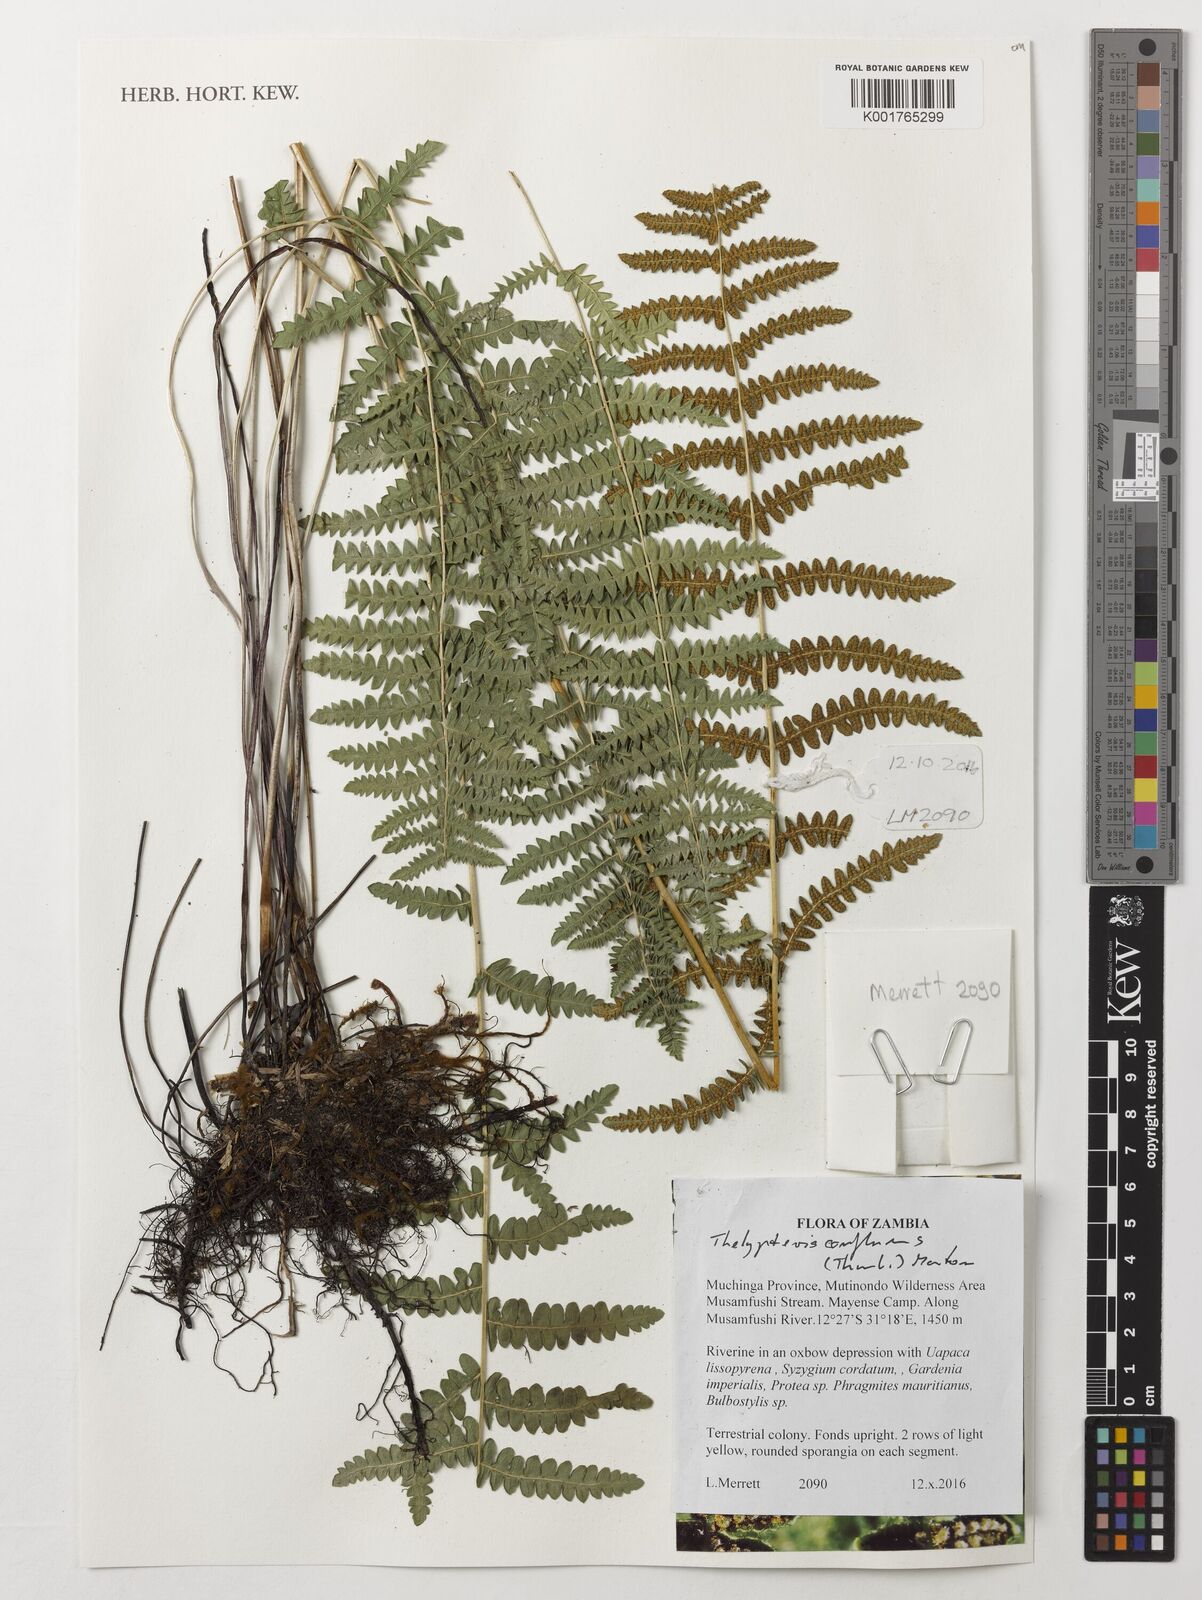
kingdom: Plantae
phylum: Tracheophyta
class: Polypodiopsida
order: Polypodiales
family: Thelypteridaceae
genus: Thelypteris
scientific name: Thelypteris confluens
